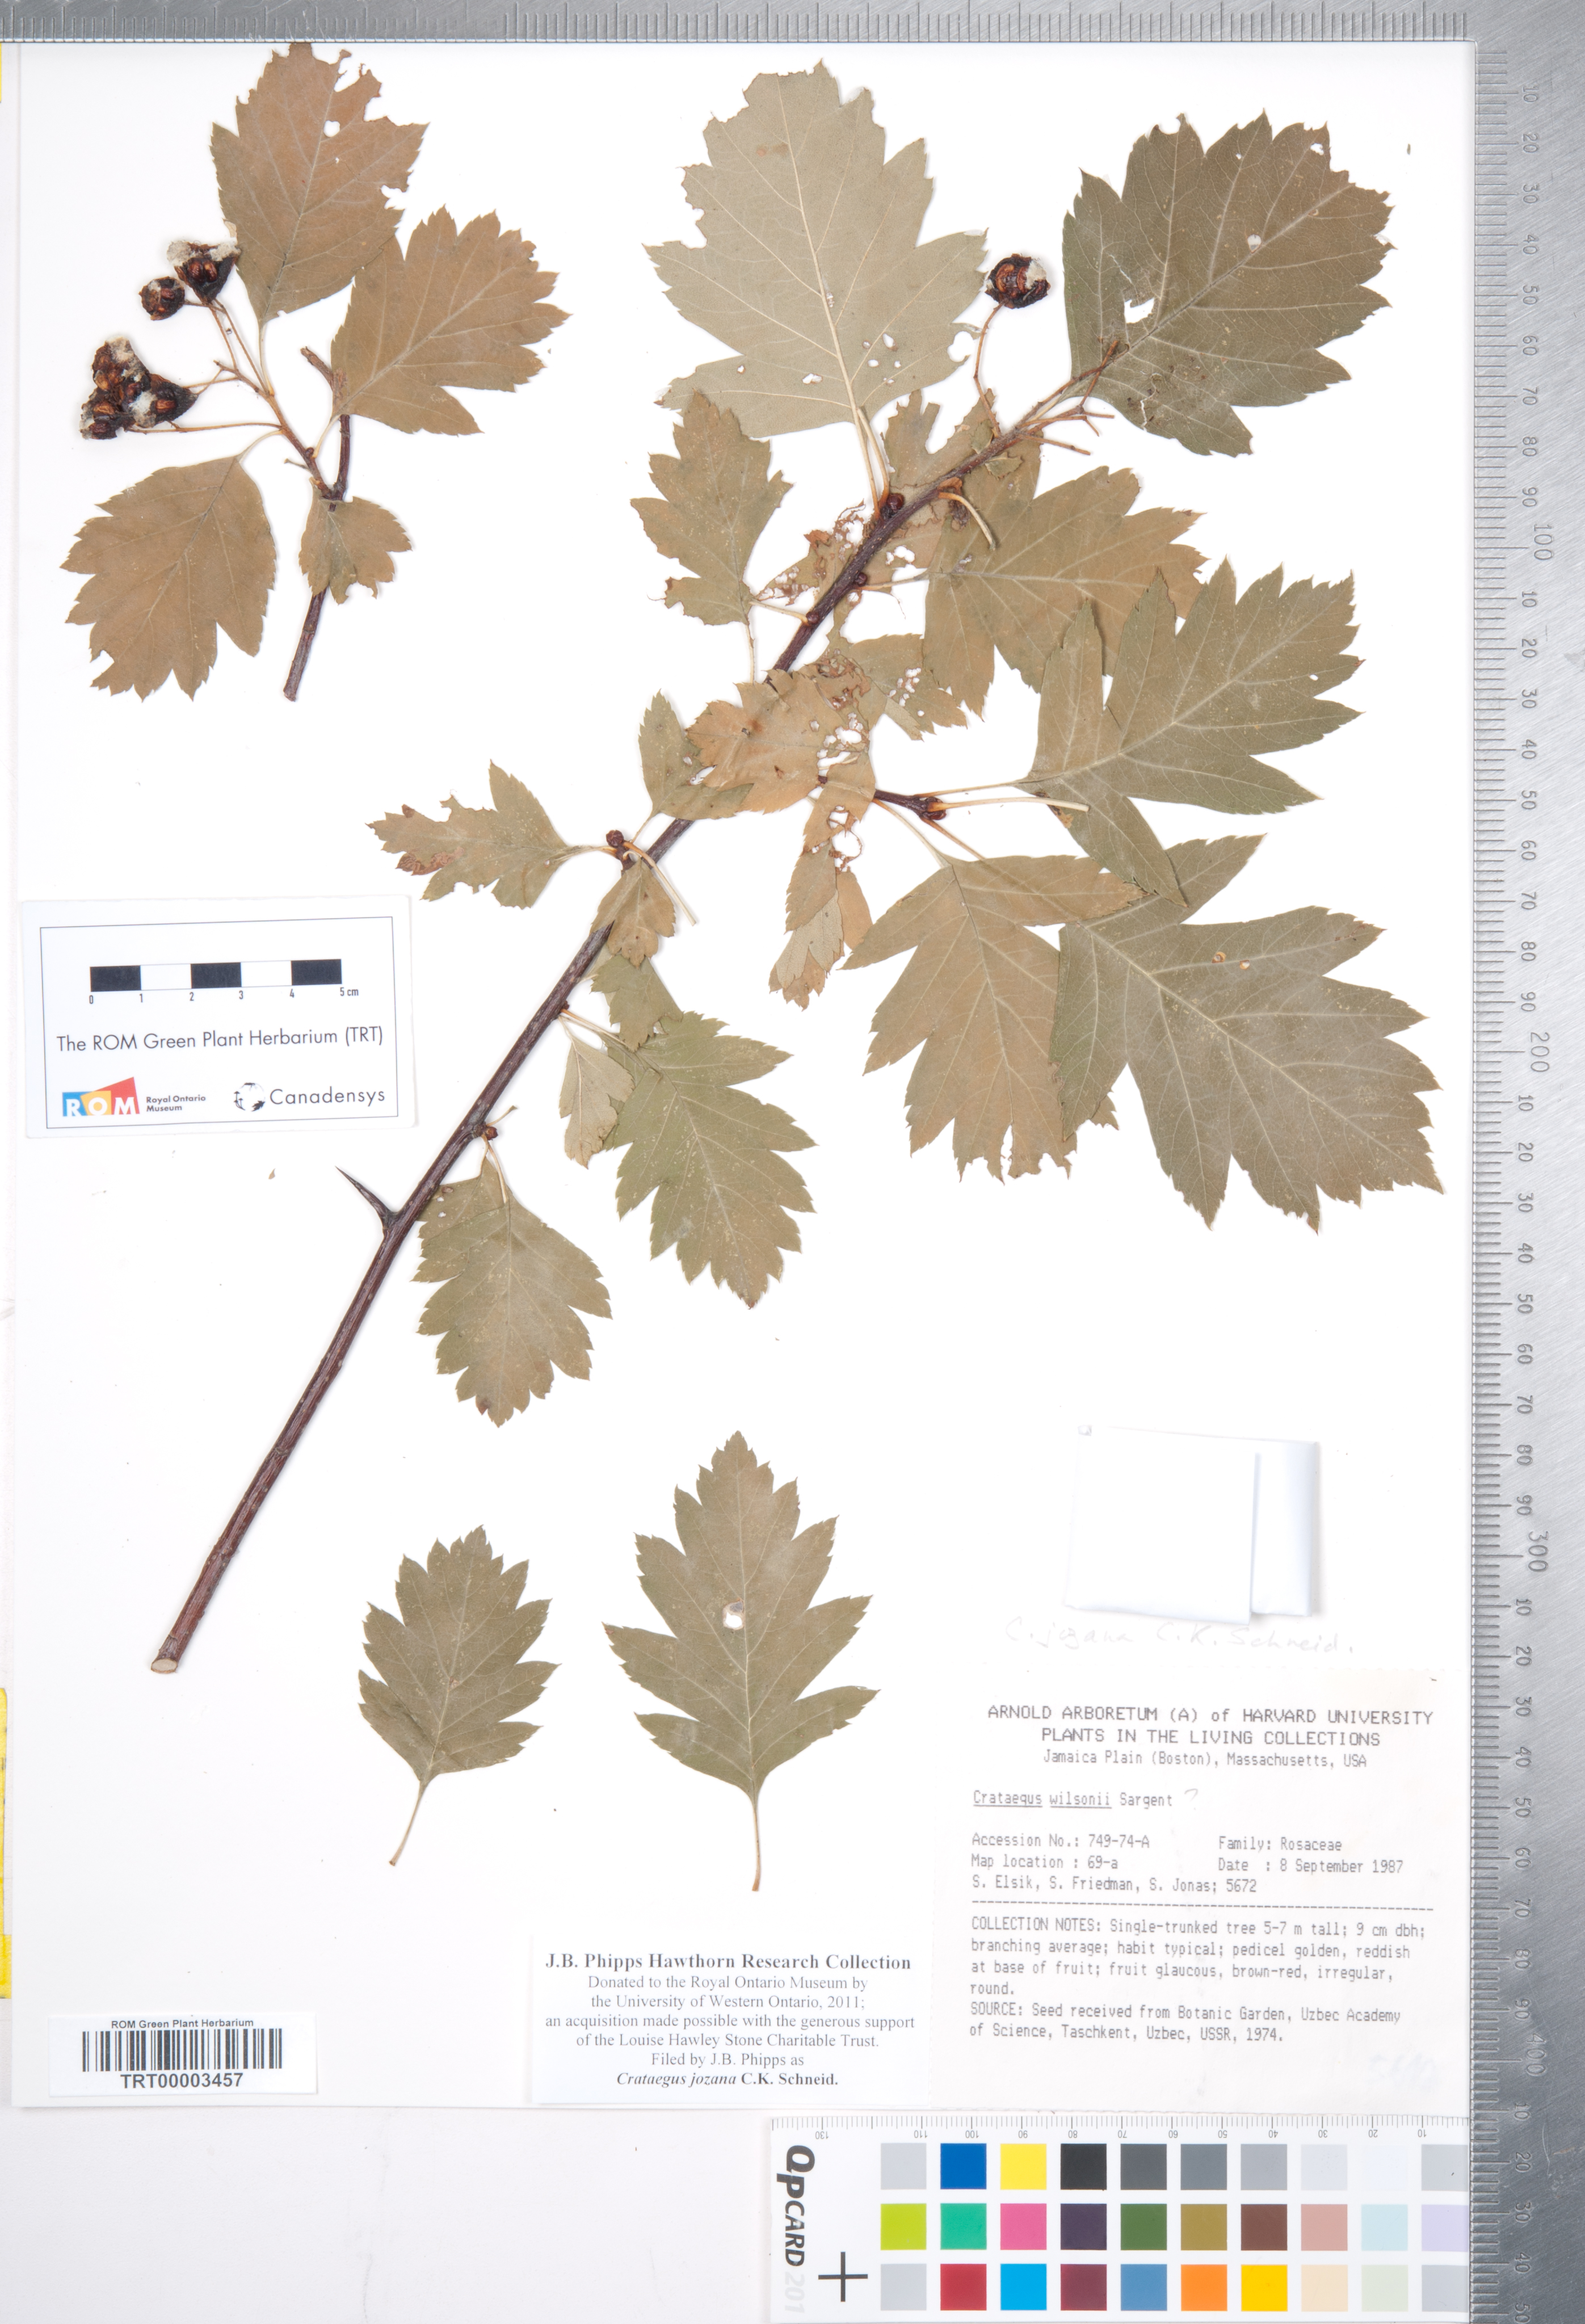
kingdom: Plantae
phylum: Tracheophyta
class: Magnoliopsida
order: Rosales
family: Rosaceae
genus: Crataegus
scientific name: Crataegus chlorosarca
